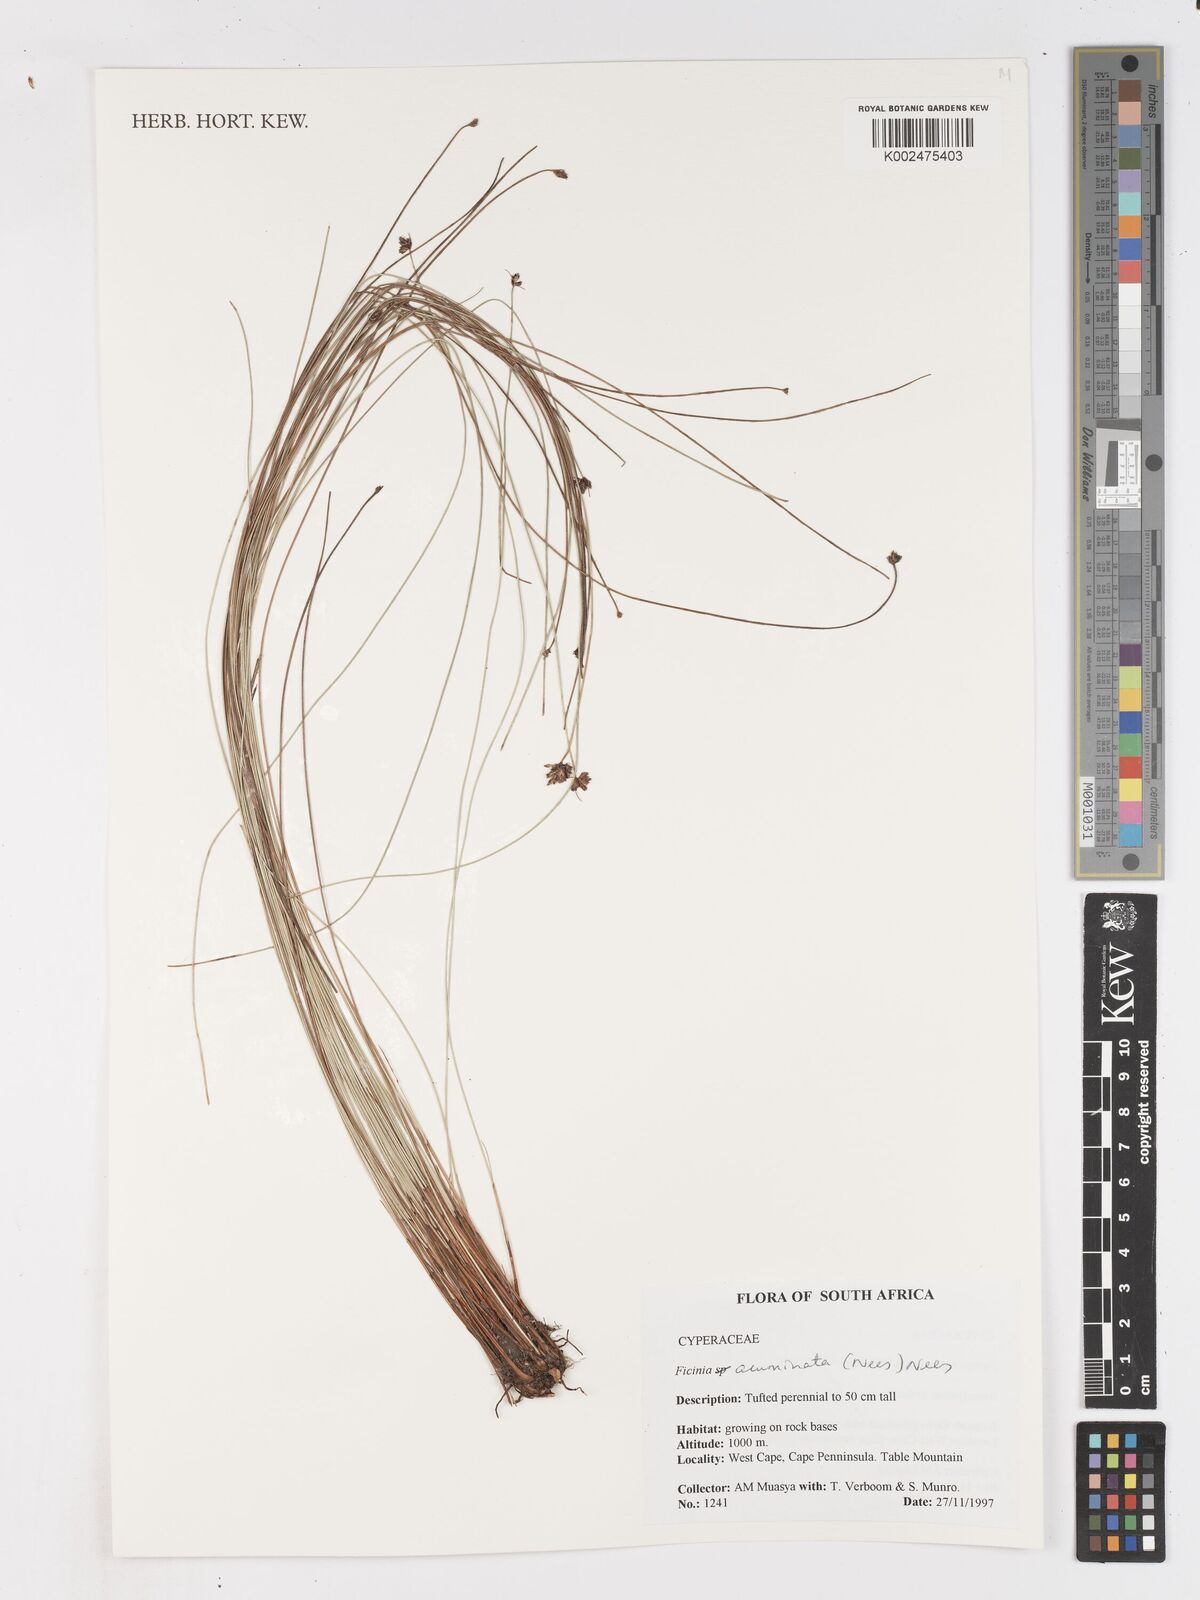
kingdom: Plantae
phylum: Tracheophyta
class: Liliopsida
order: Poales
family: Cyperaceae
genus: Ficinia
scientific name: Ficinia acuminata
